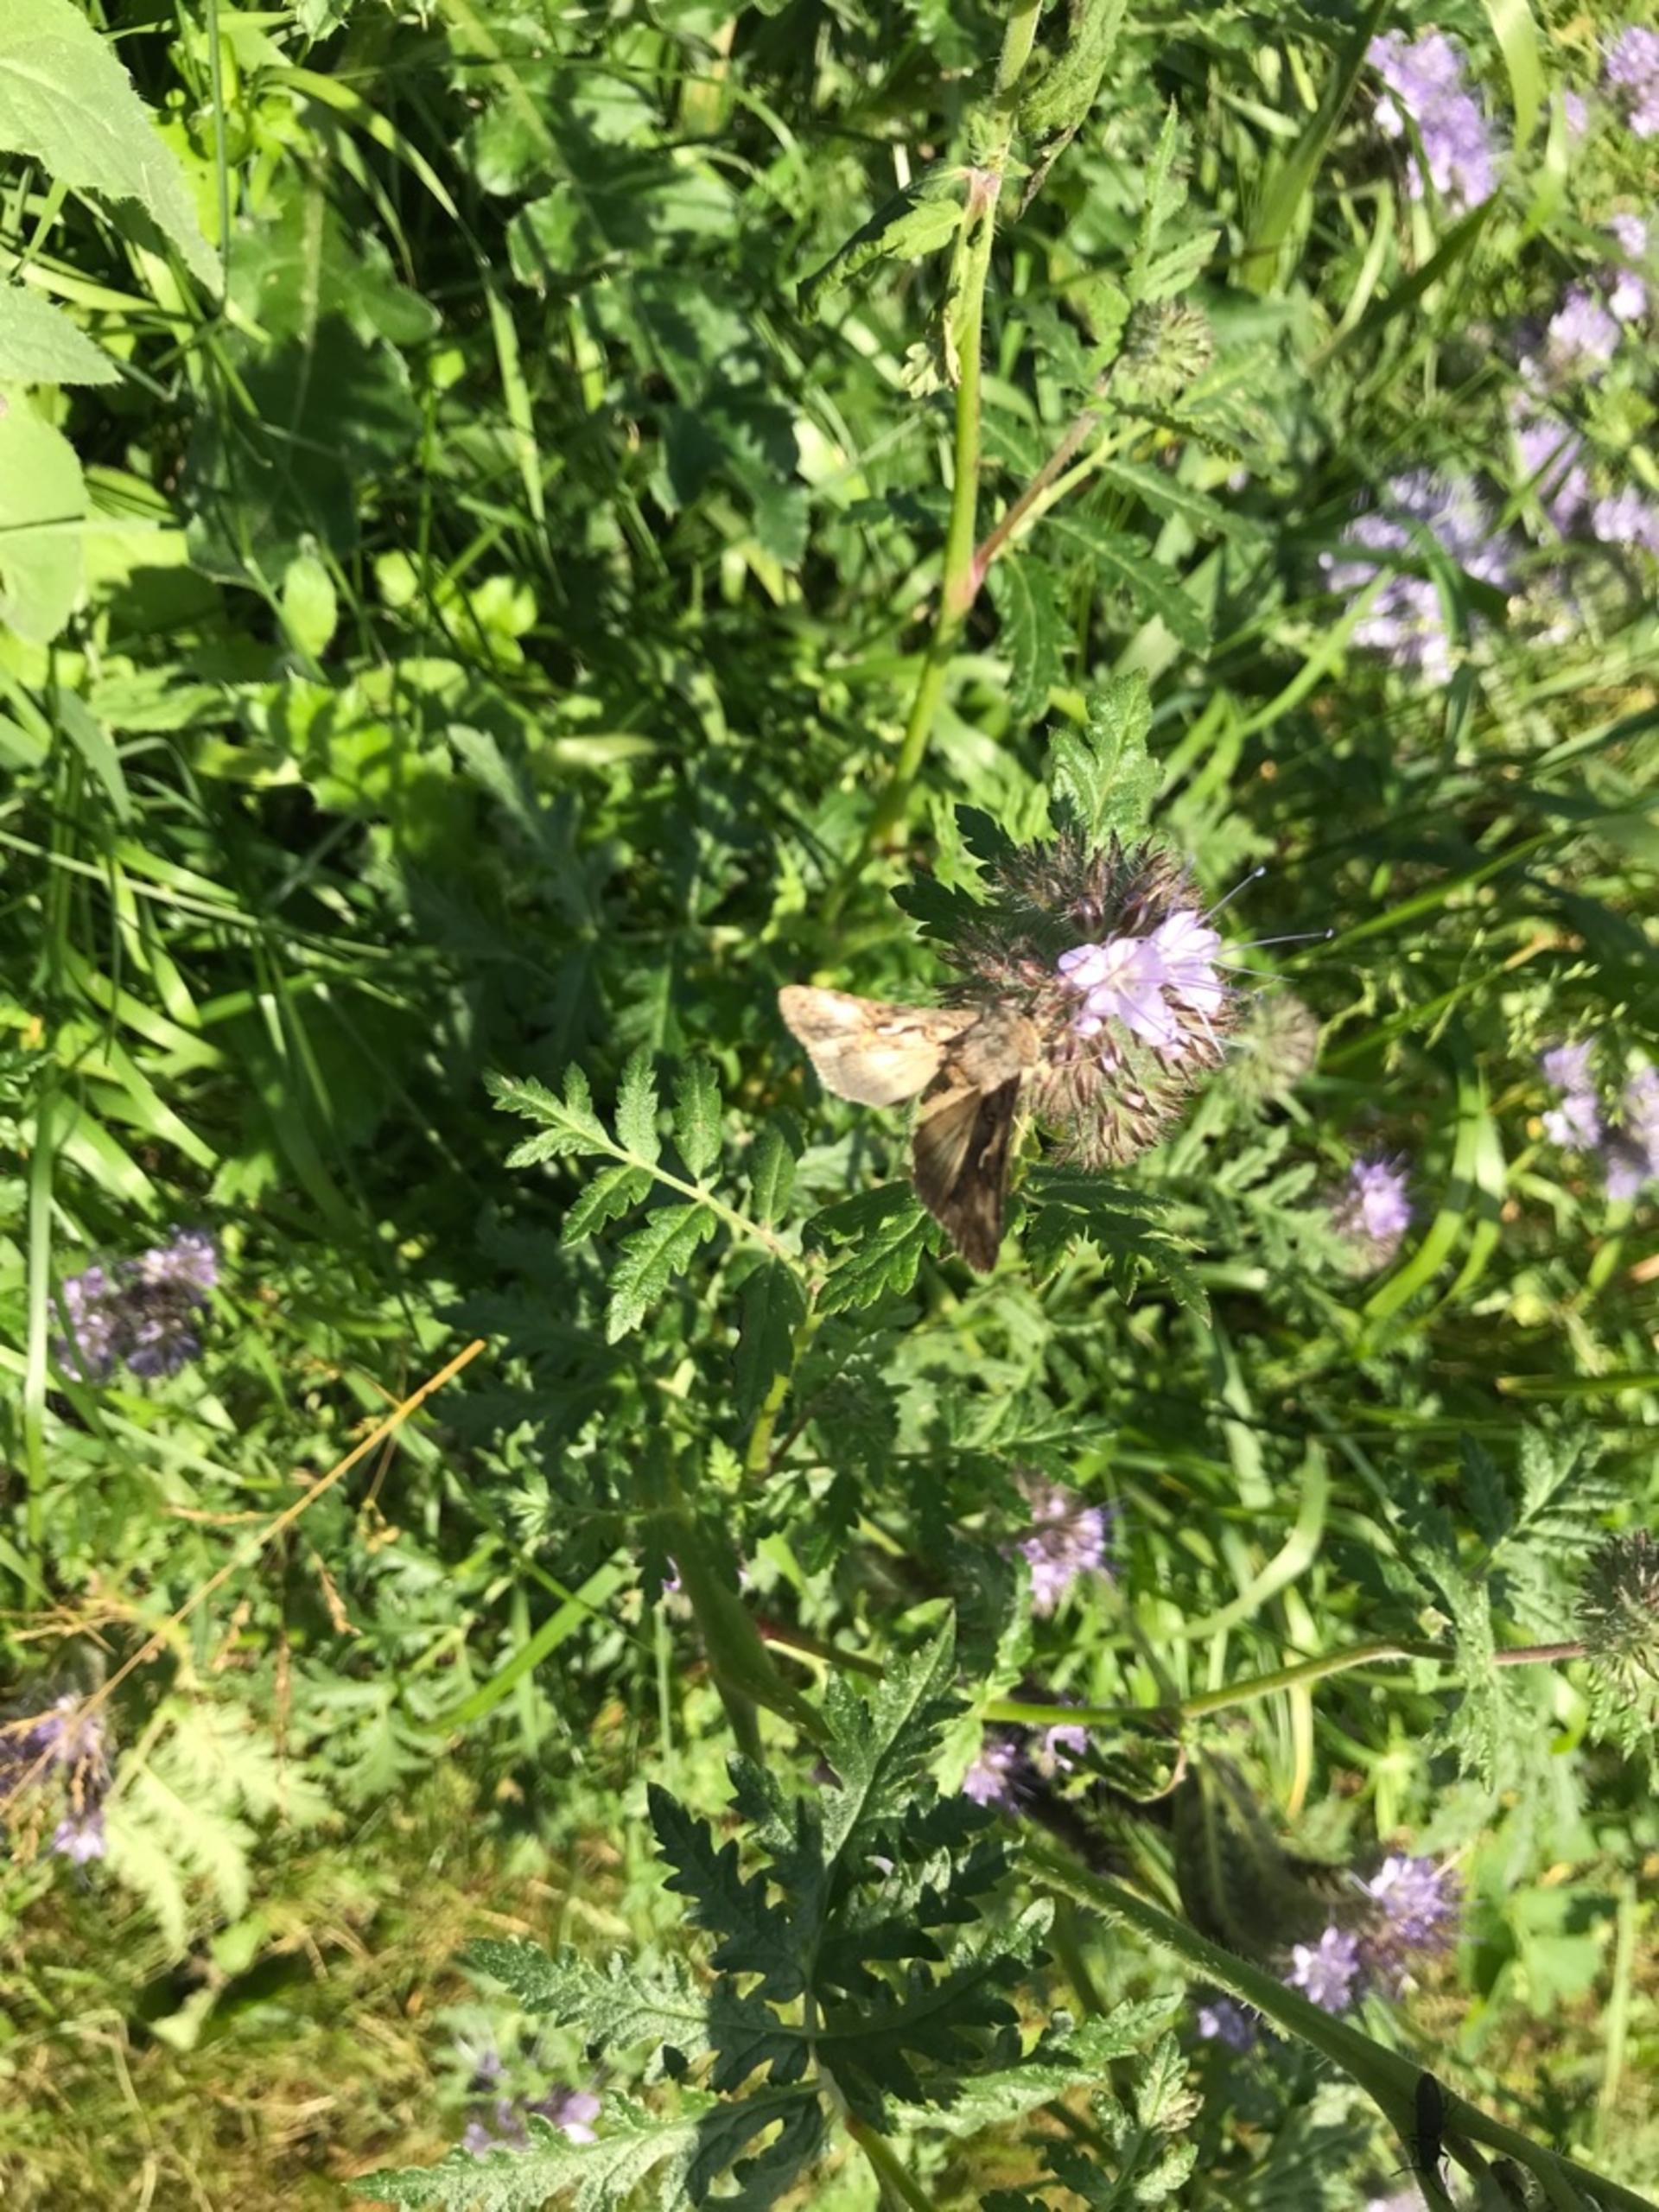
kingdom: Animalia
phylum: Arthropoda
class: Insecta
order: Lepidoptera
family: Noctuidae
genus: Autographa
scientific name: Autographa gamma
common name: Gammaugle
